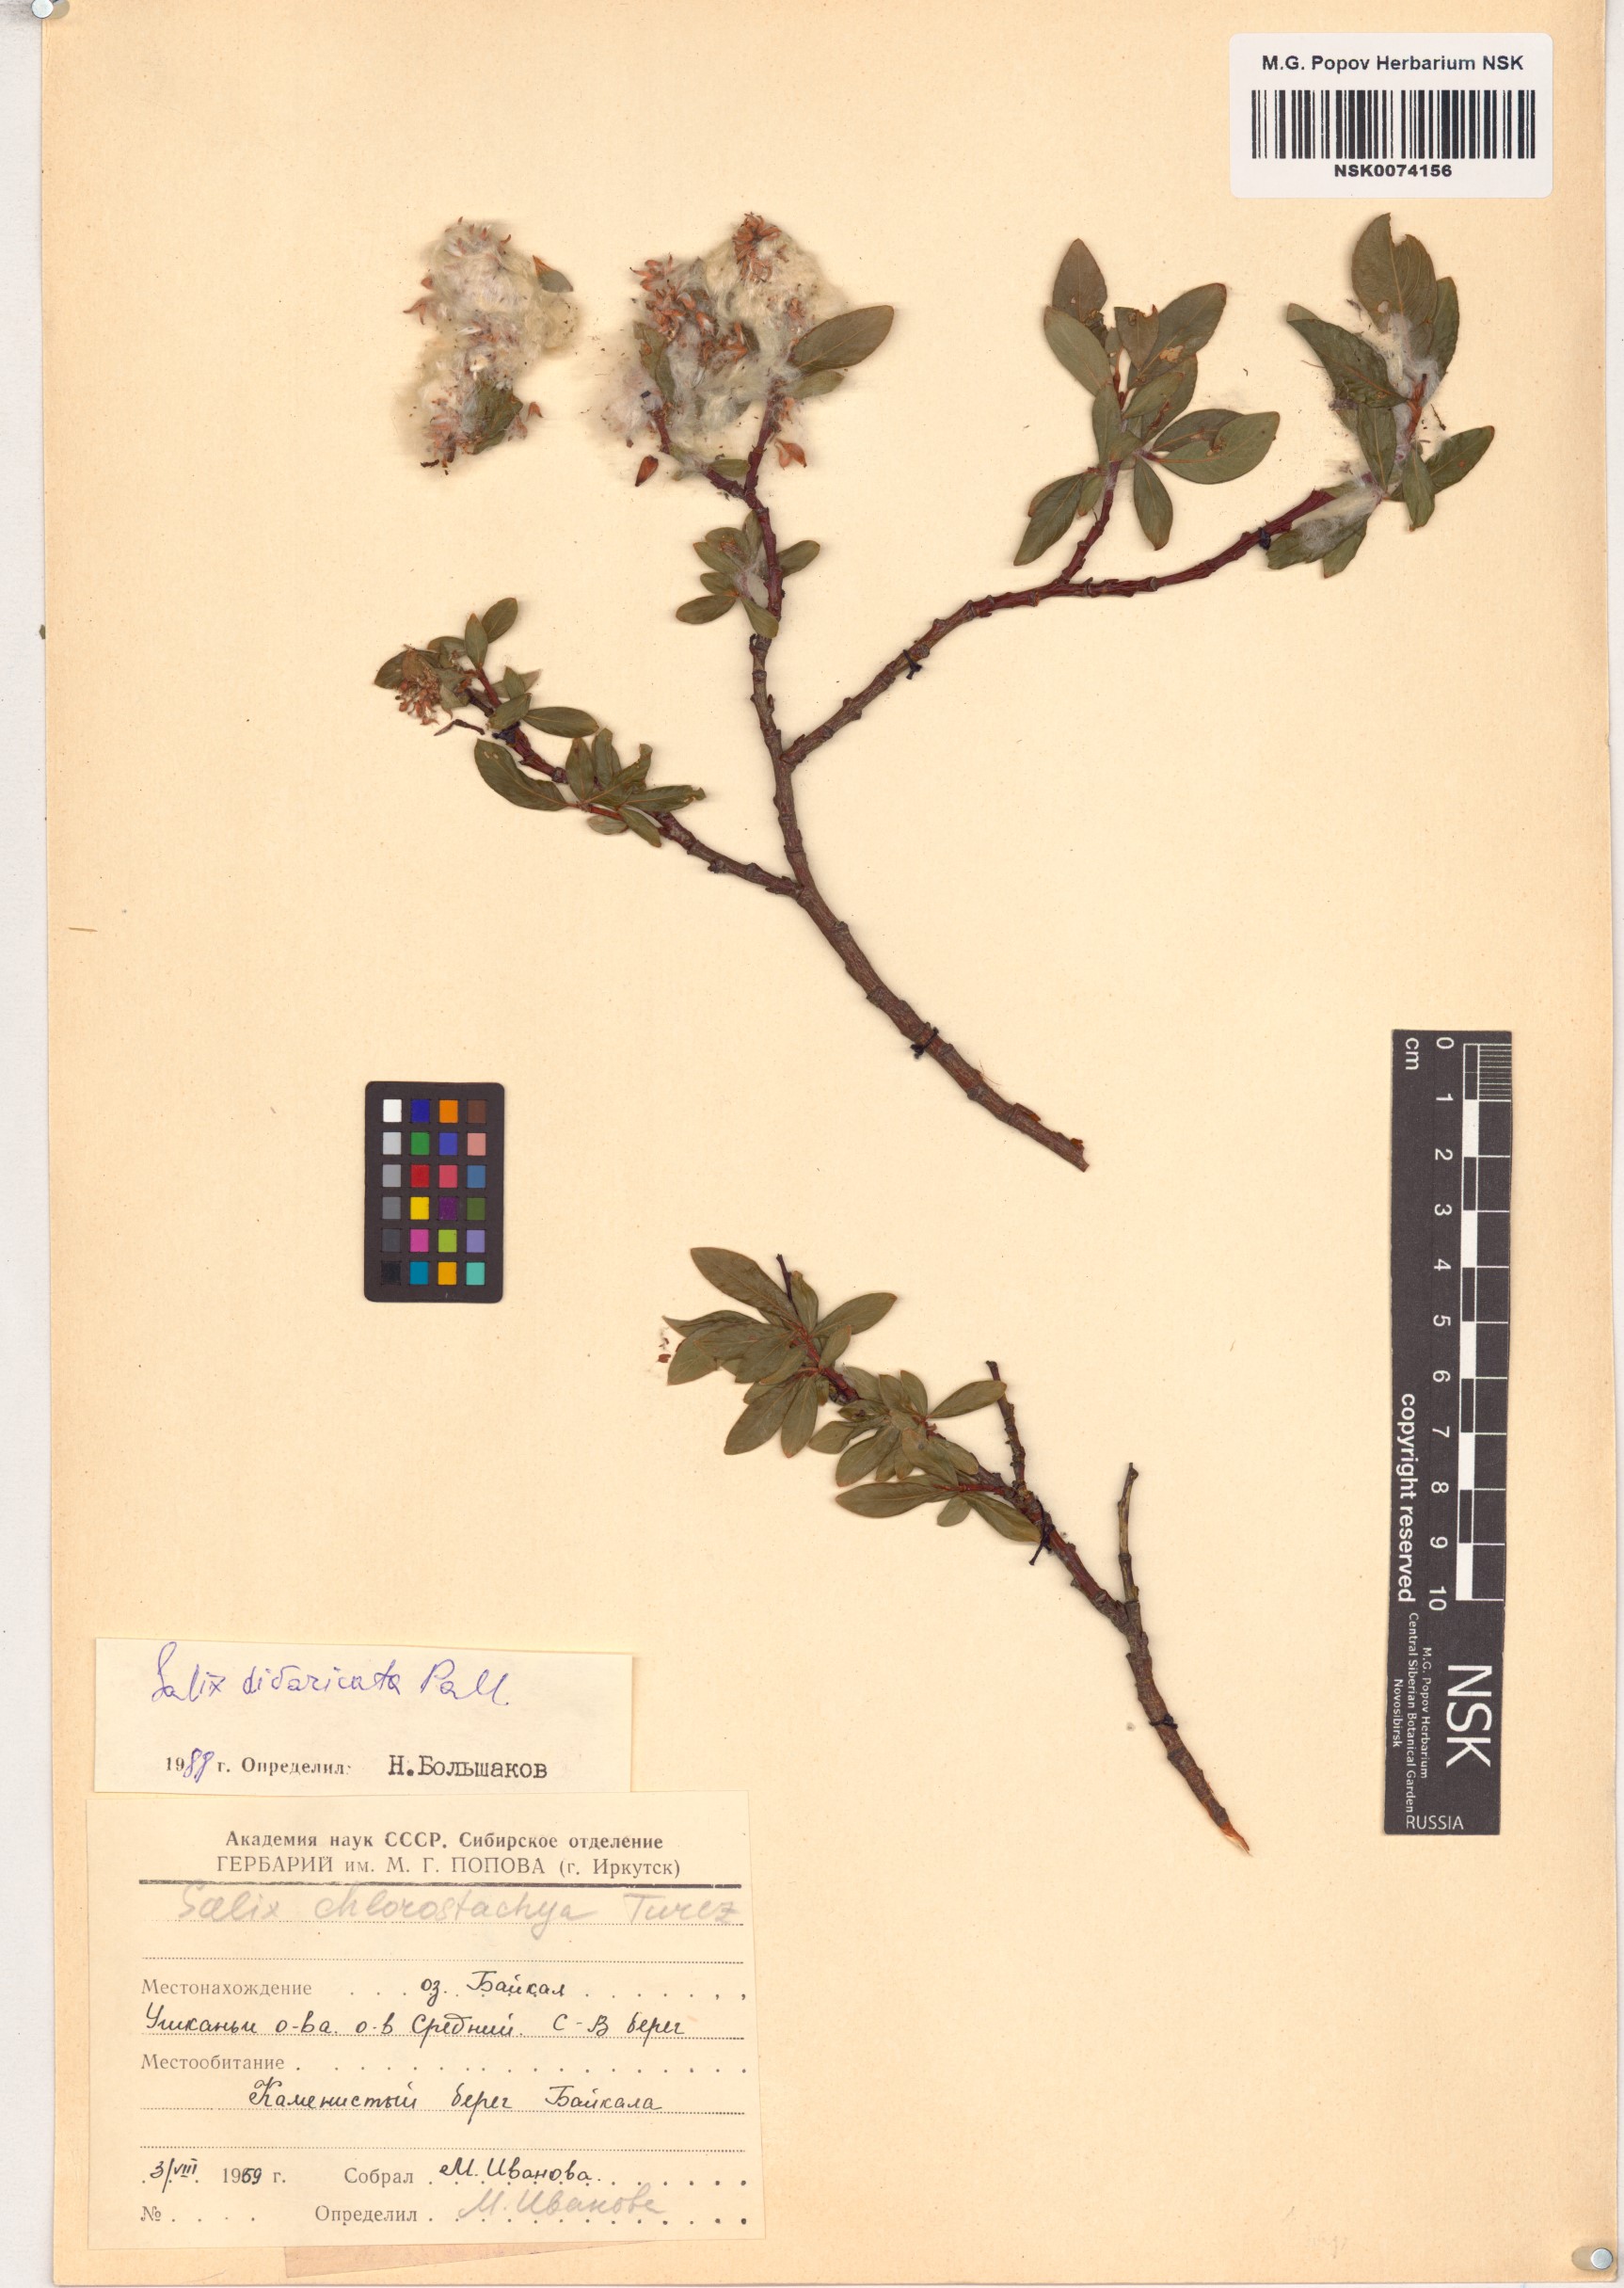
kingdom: Plantae
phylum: Tracheophyta
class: Magnoliopsida
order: Malpighiales
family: Salicaceae
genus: Salix
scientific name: Salix divaricata
